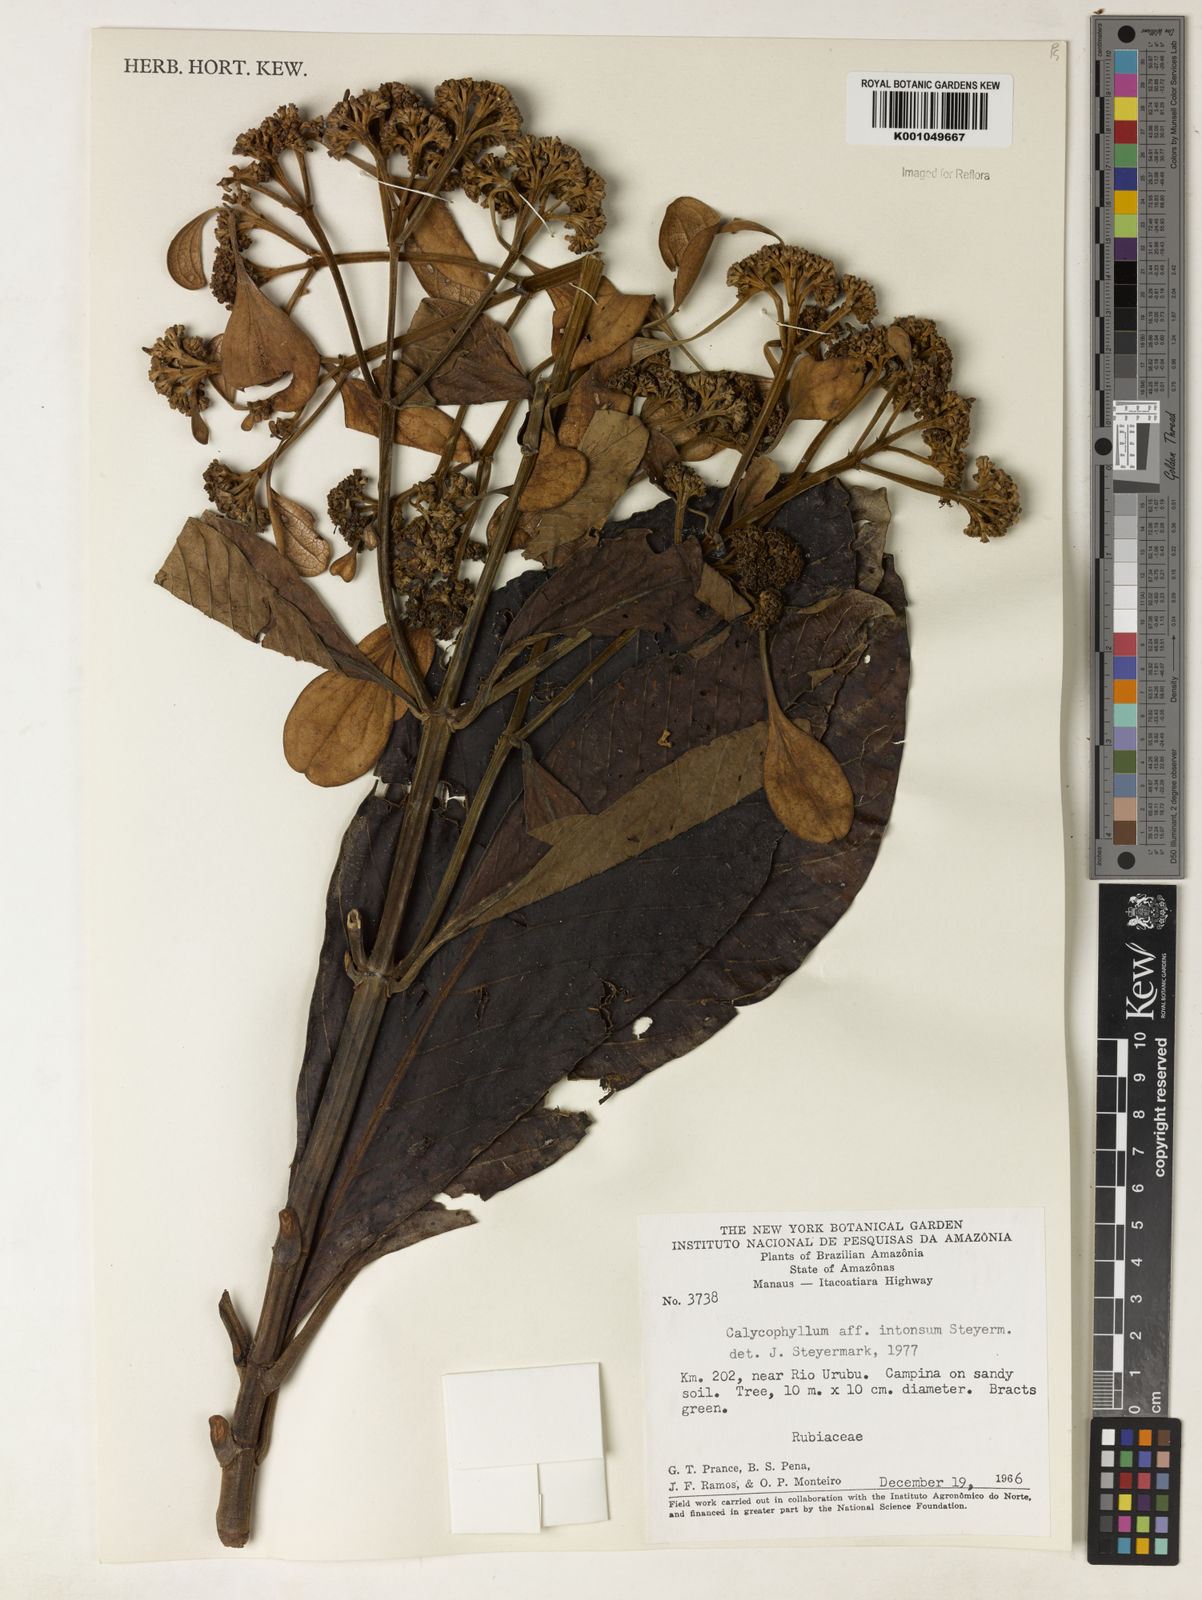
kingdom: Plantae
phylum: Tracheophyta
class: Magnoliopsida
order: Gentianales
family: Rubiaceae
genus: Calycophyllum
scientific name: Calycophyllum intonsum
